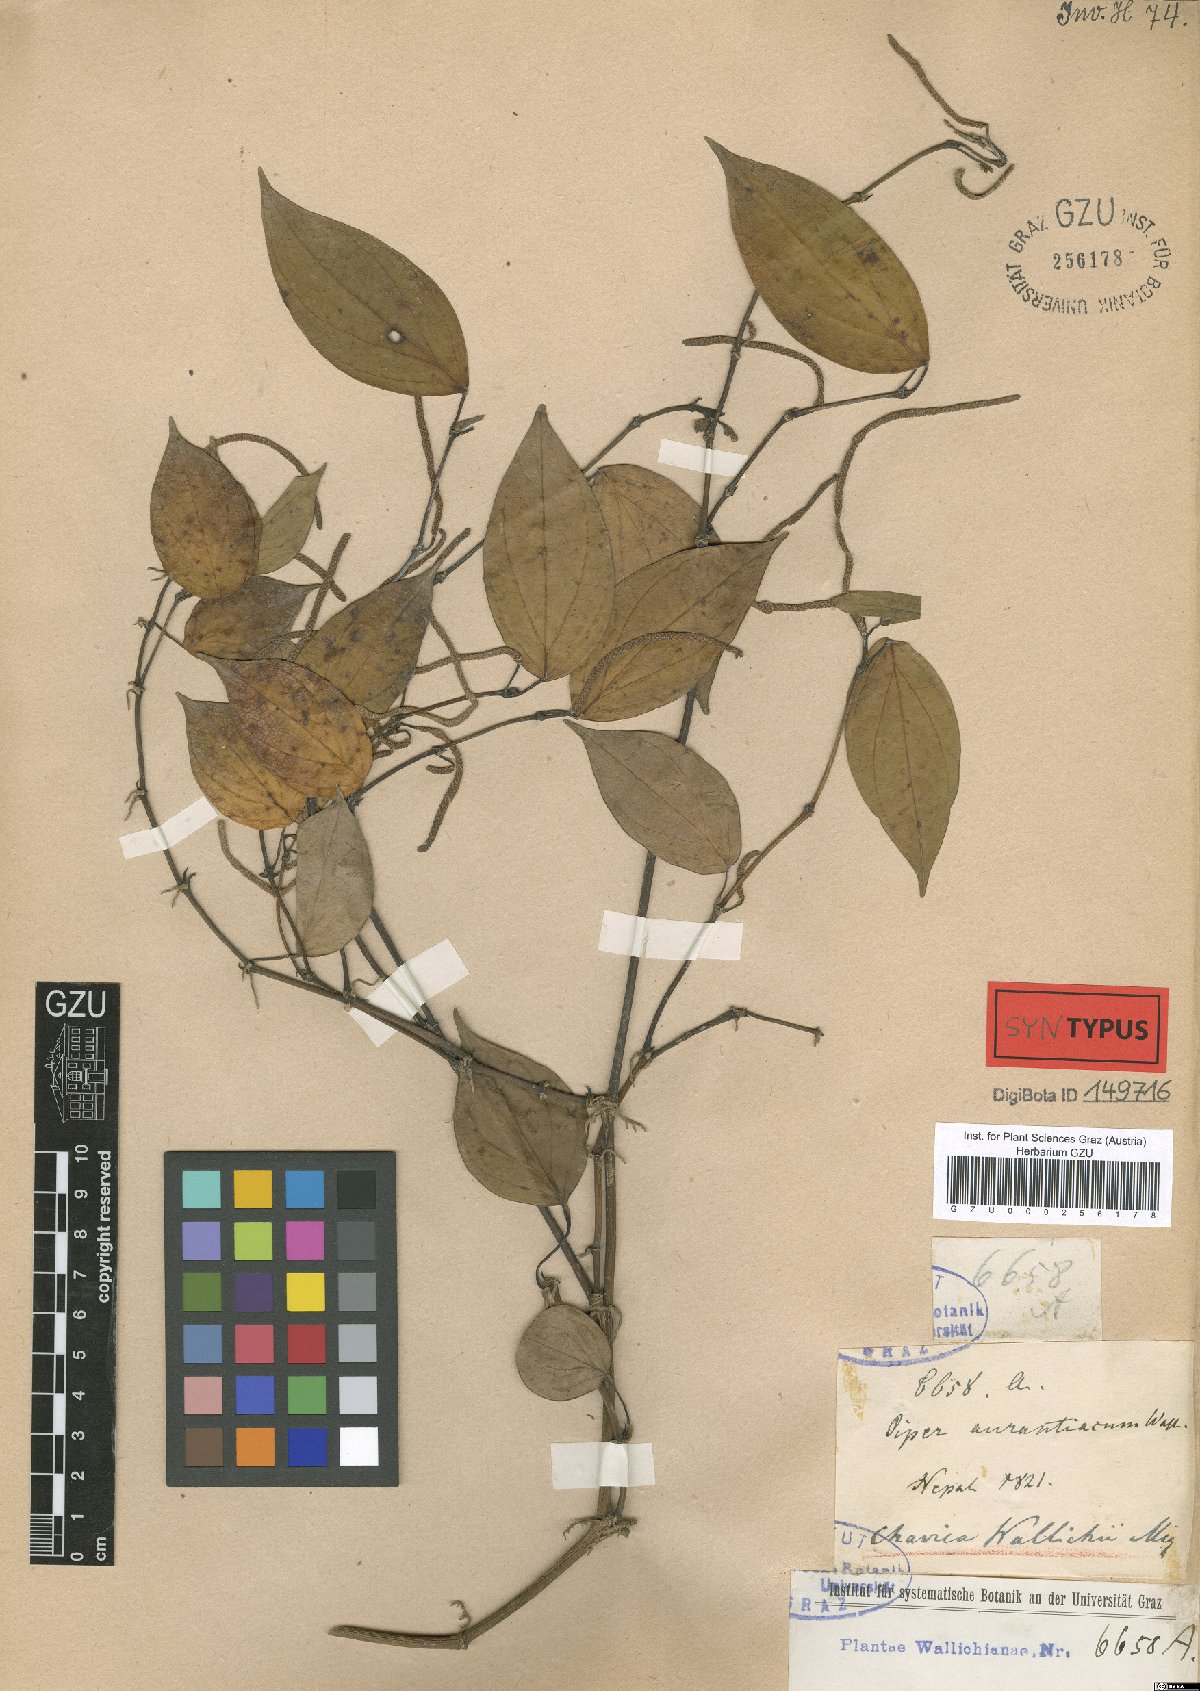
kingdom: Plantae
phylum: Tracheophyta
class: Magnoliopsida
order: Piperales
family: Piperaceae
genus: Piper
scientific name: Piper wallichii
